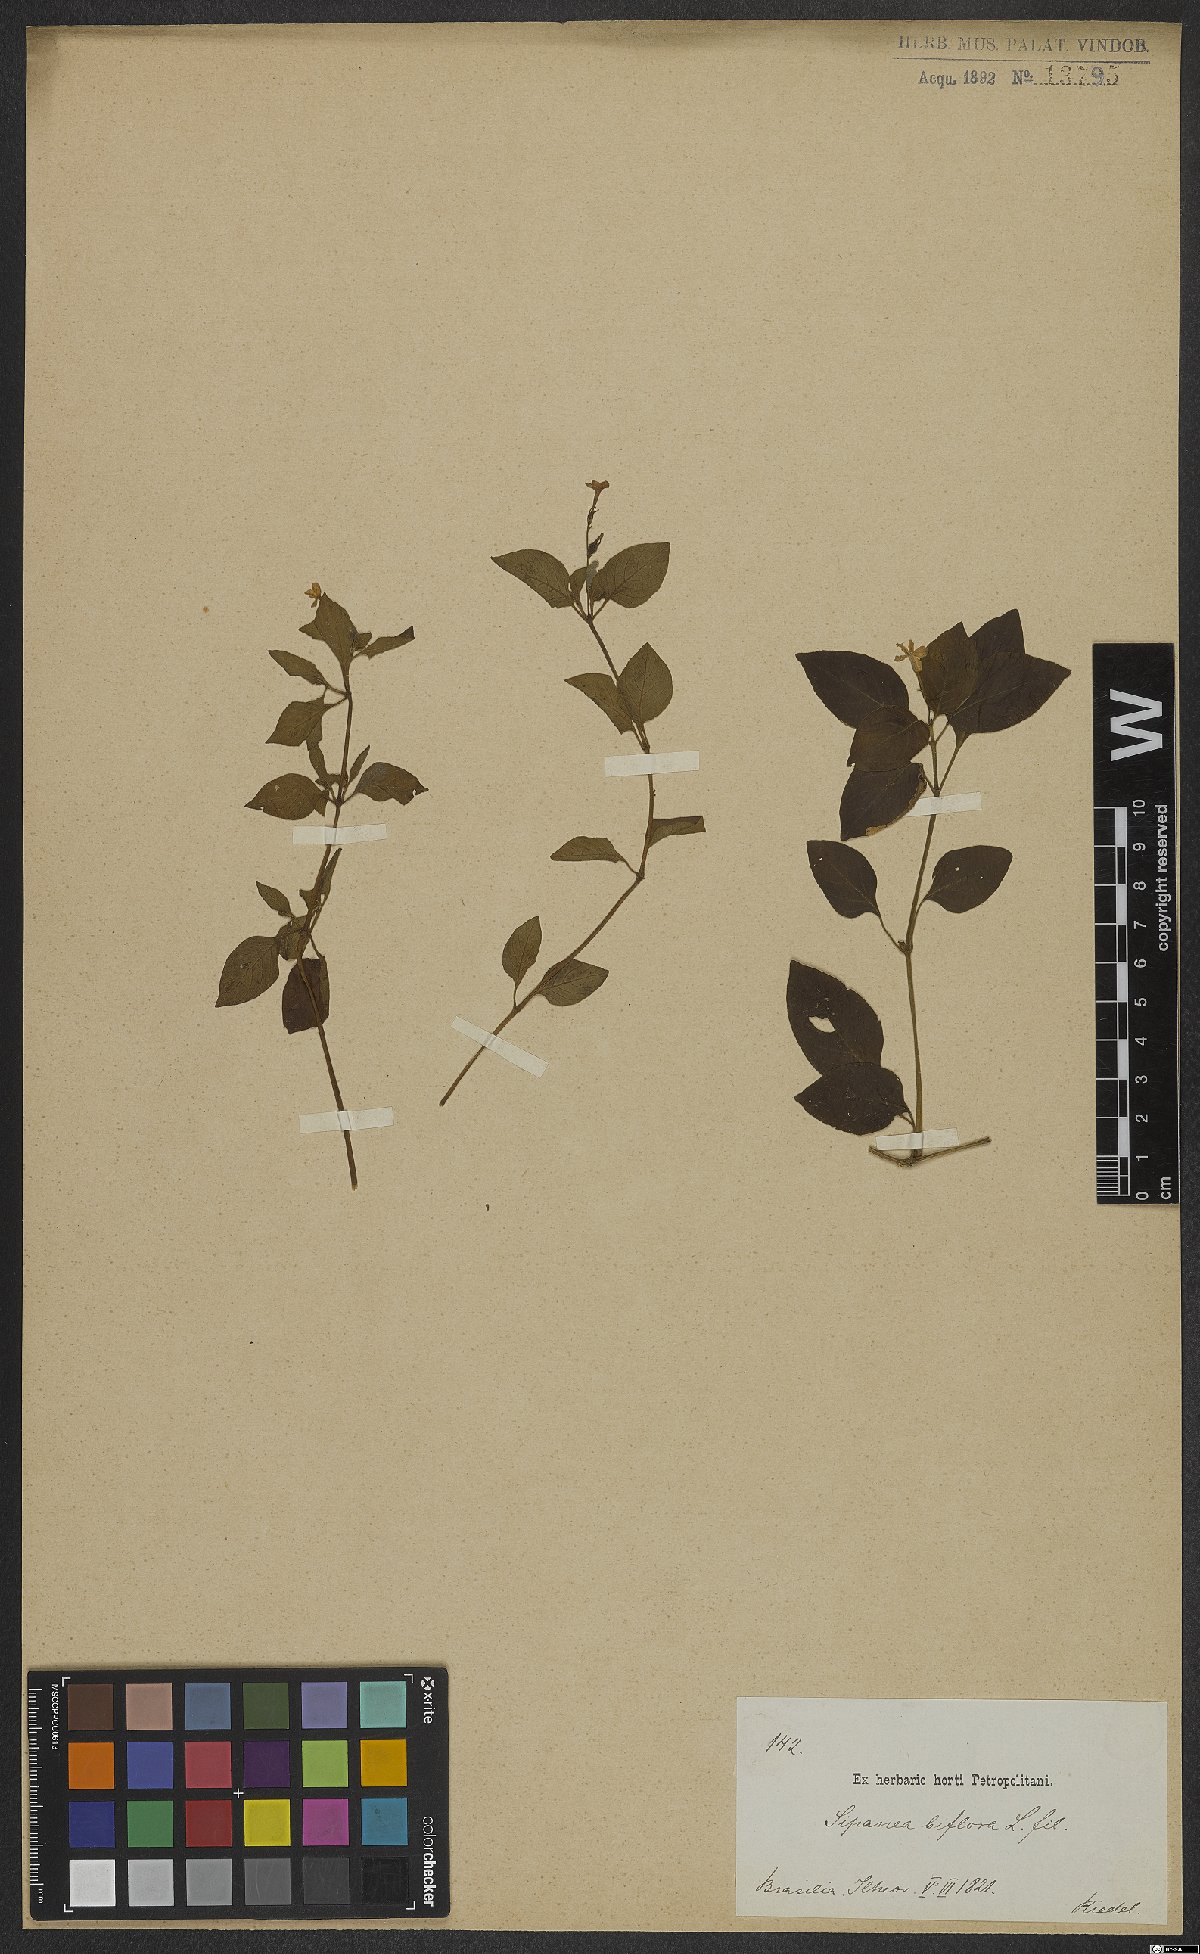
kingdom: Plantae
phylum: Tracheophyta
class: Magnoliopsida
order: Gentianales
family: Rubiaceae
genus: Sipanea
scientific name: Sipanea biflora
